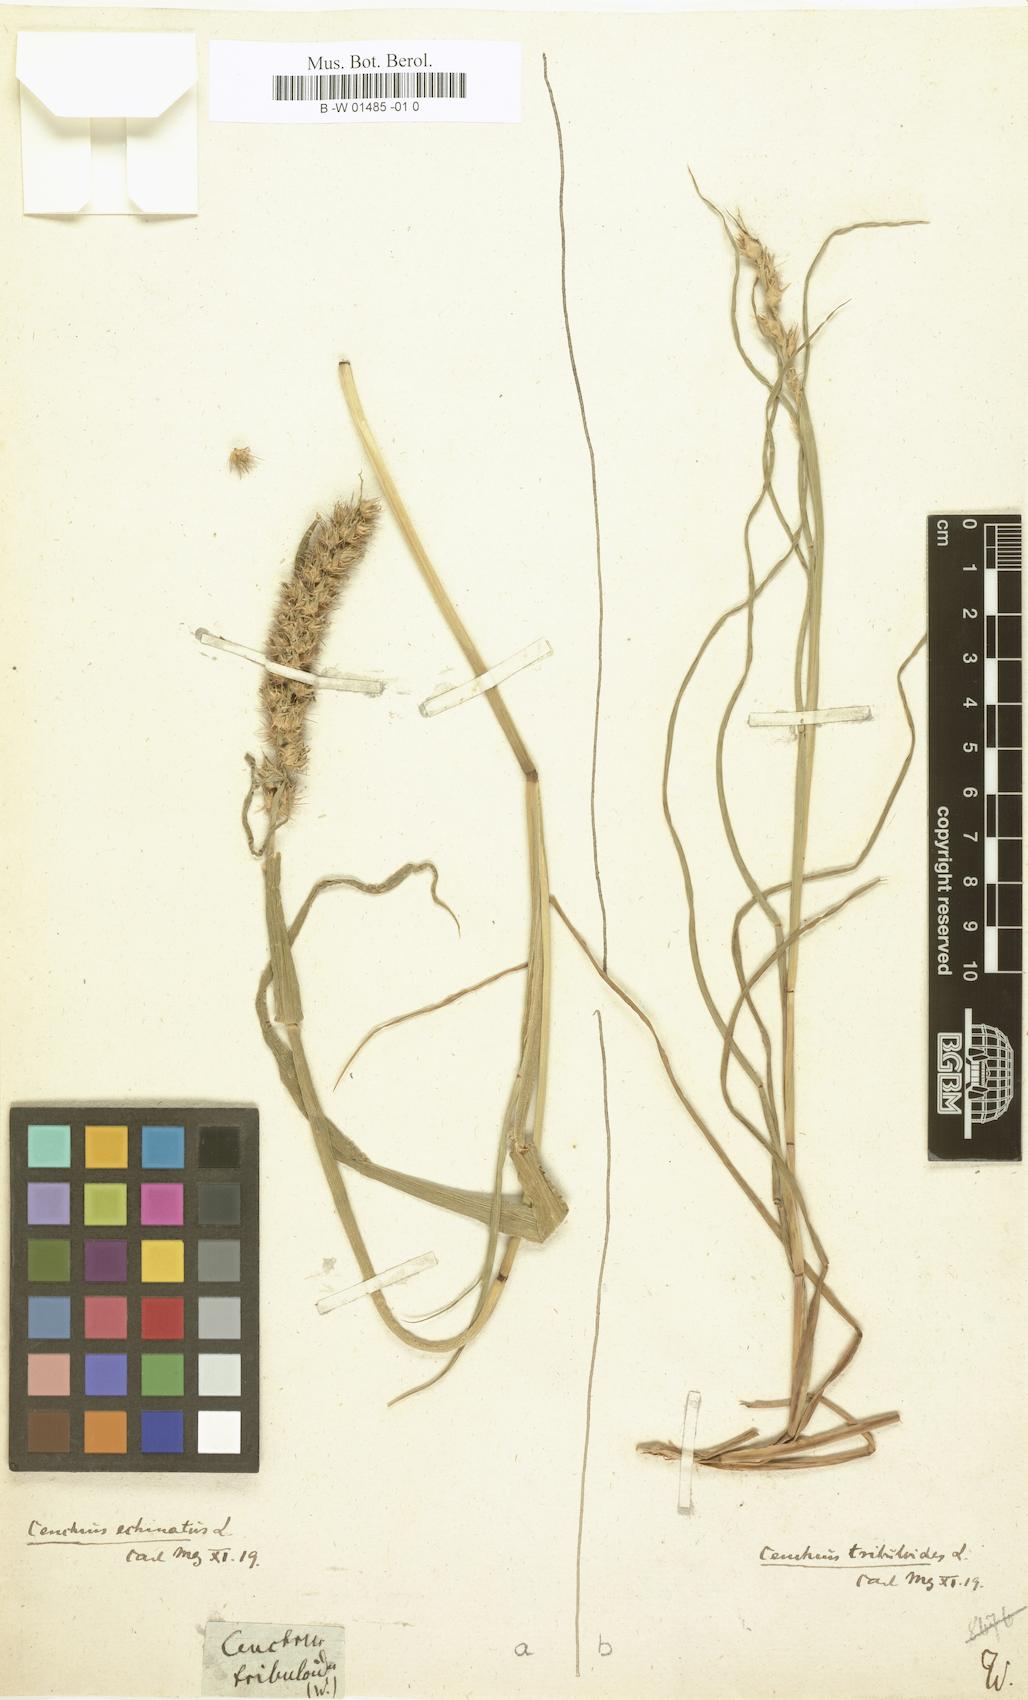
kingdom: Plantae
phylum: Tracheophyta
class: Liliopsida
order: Poales
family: Poaceae
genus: Cenchrus
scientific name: Cenchrus tribuloides
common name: Dune sandbur
